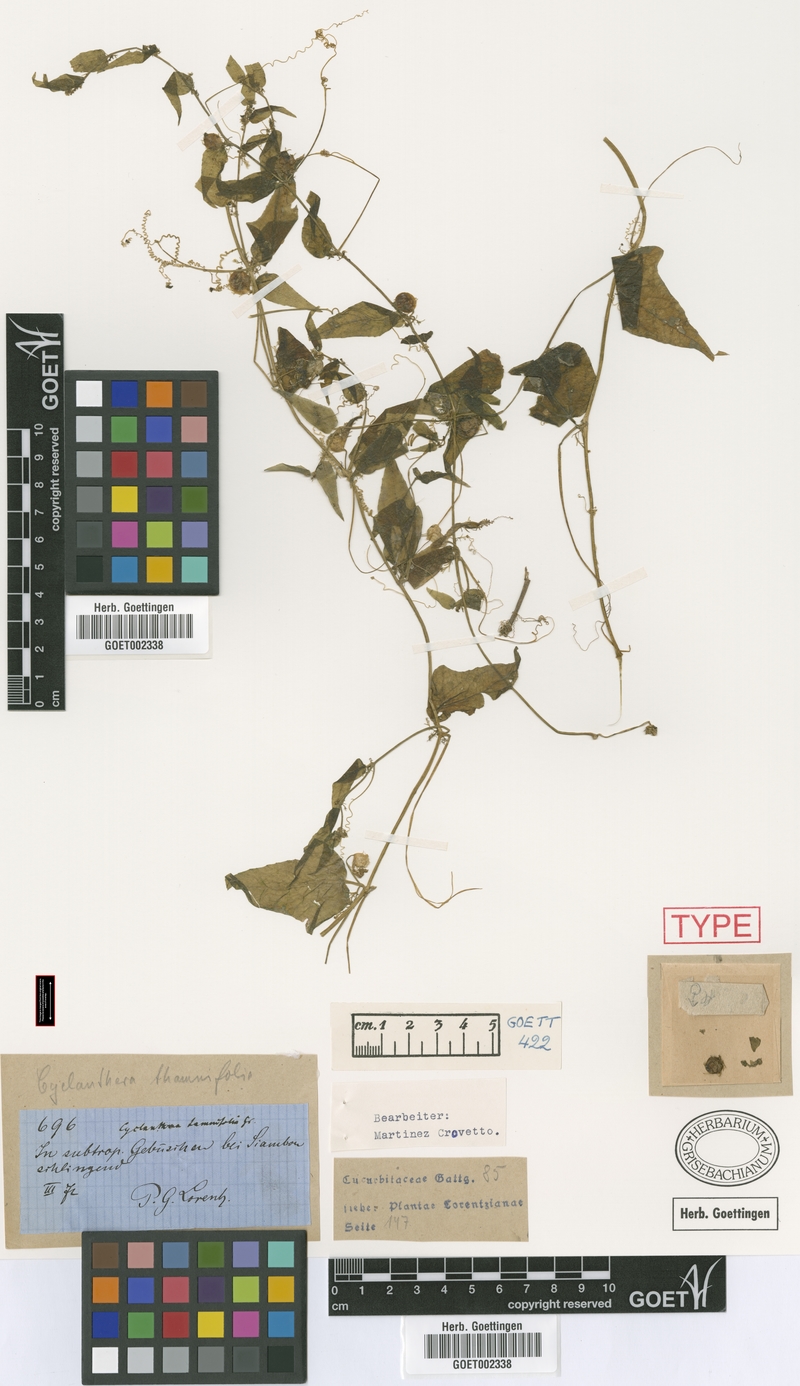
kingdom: Plantae
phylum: Tracheophyta
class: Magnoliopsida
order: Cucurbitales
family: Cucurbitaceae
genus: Cyclanthera
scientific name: Cyclanthera tamnifolia
